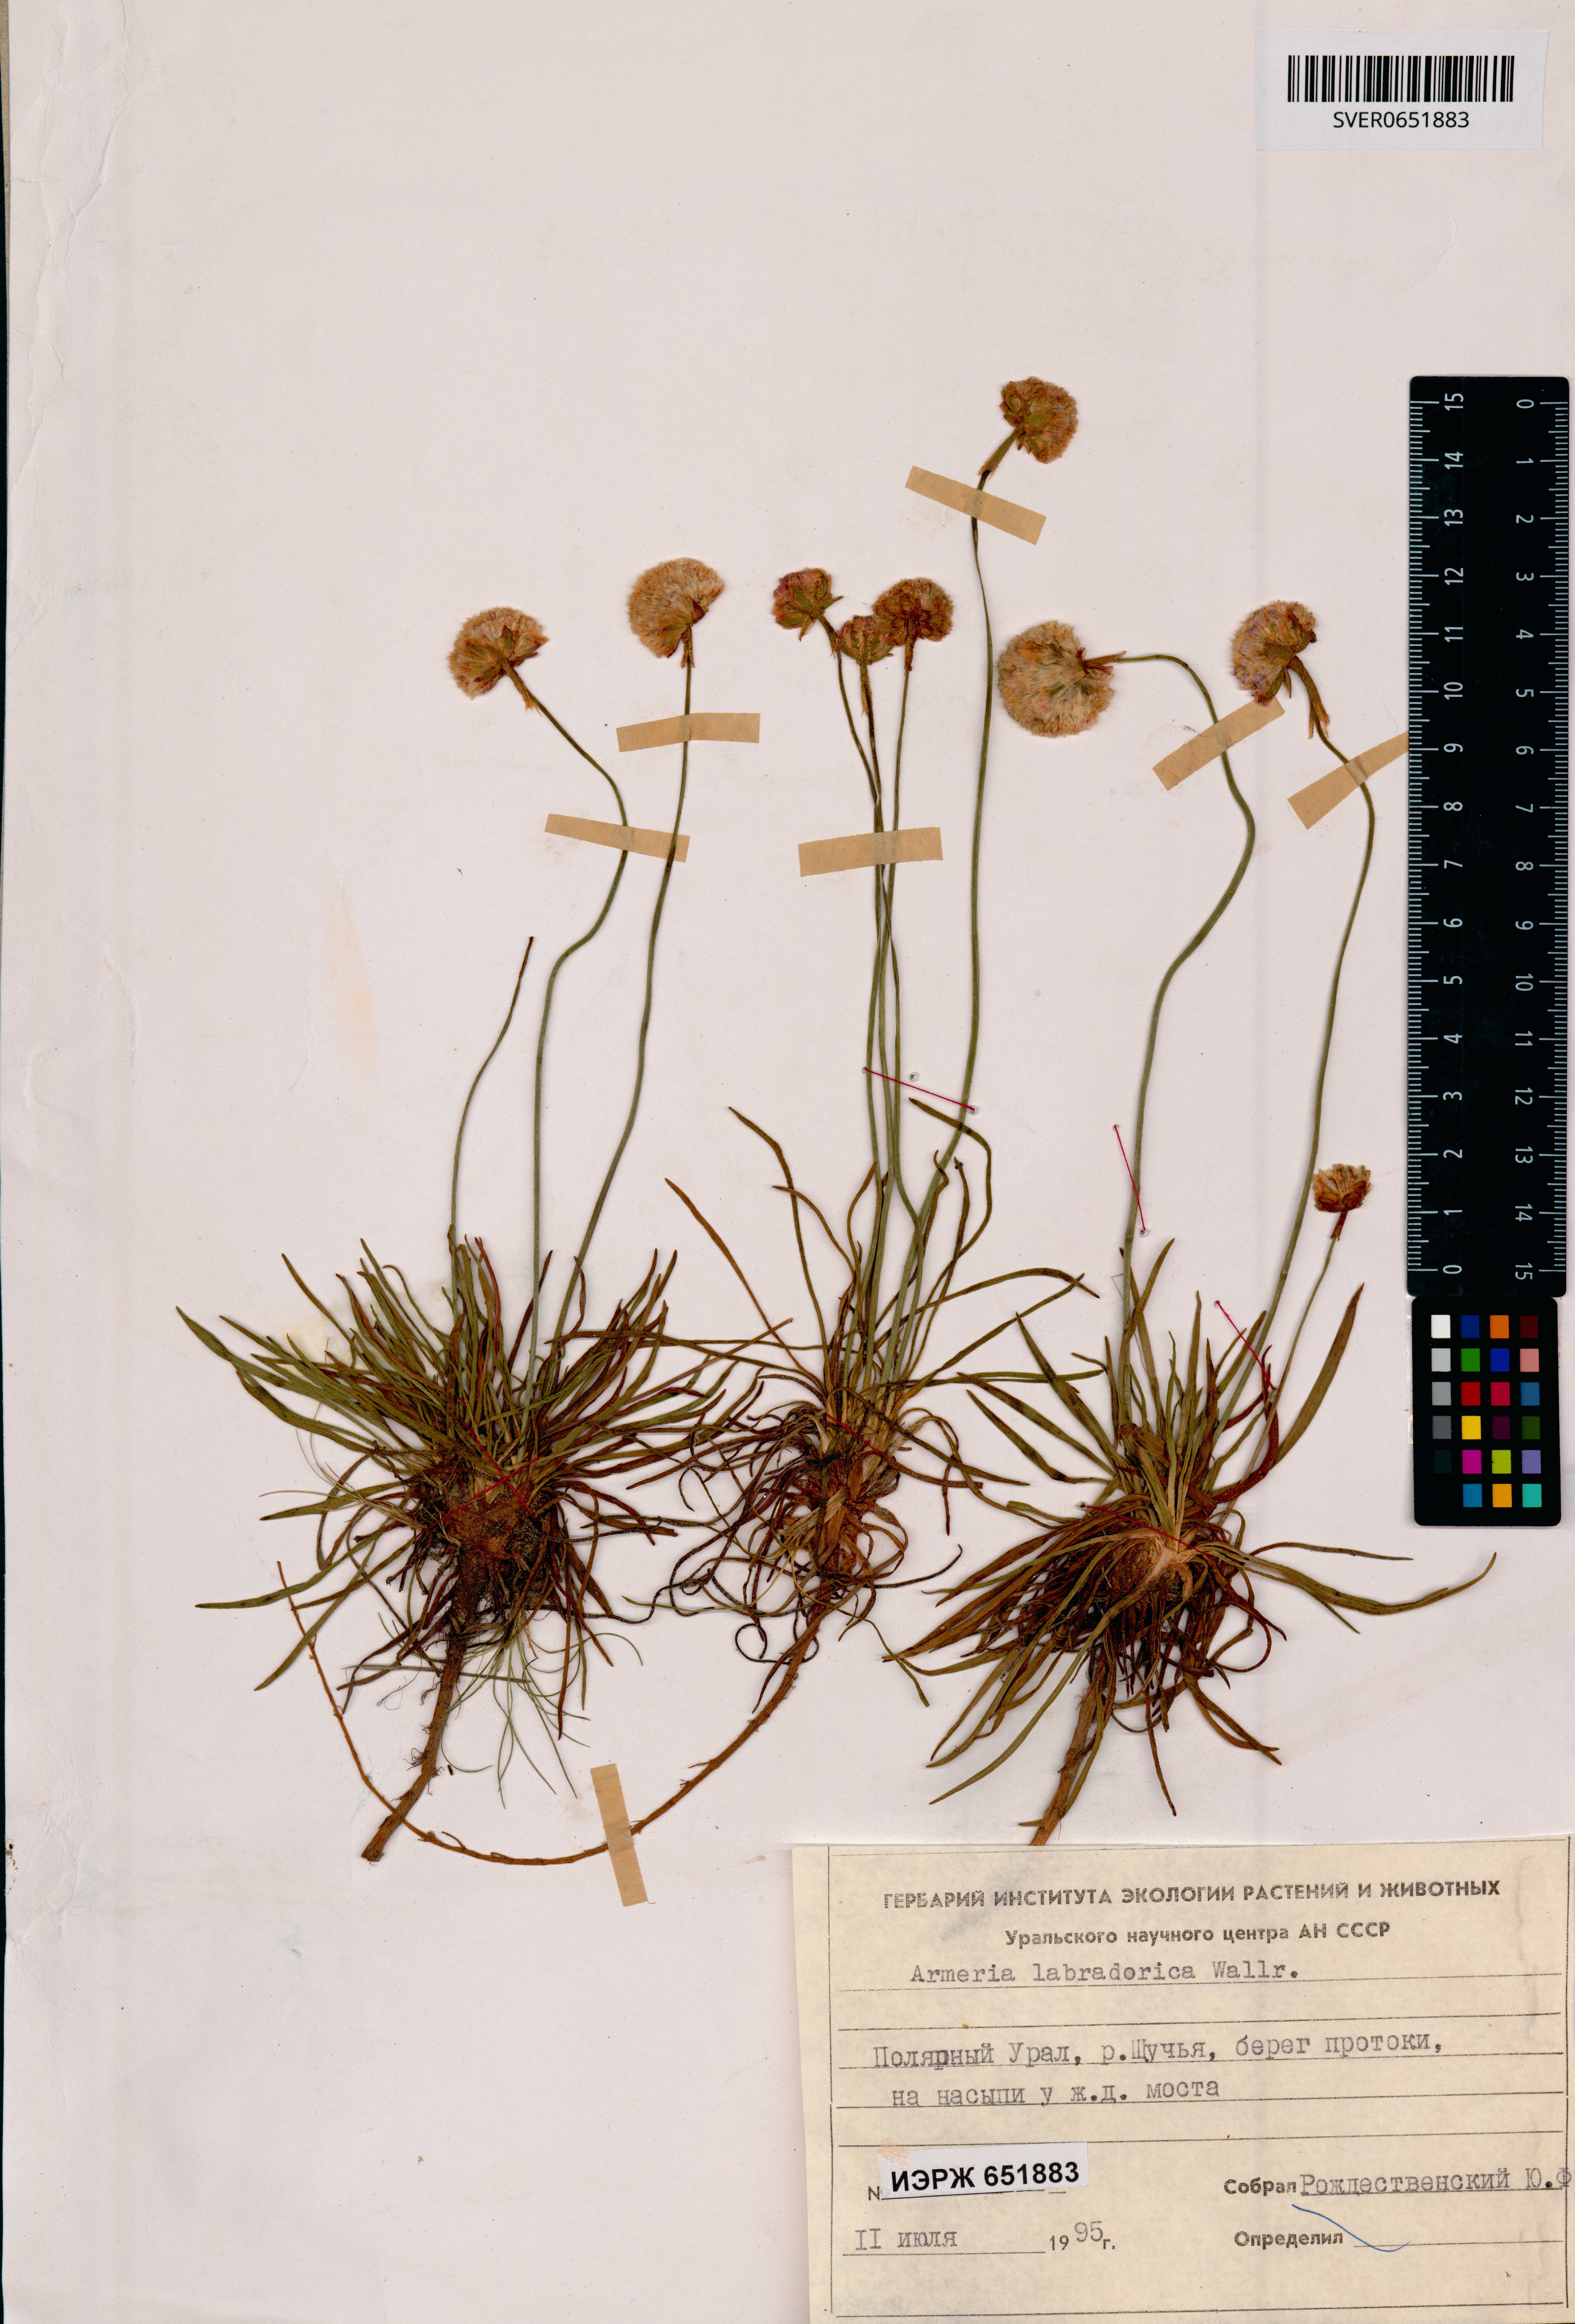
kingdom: Plantae
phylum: Tracheophyta
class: Magnoliopsida
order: Caryophyllales
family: Plumbaginaceae
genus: Armeria
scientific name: Armeria maritima
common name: Thrift
